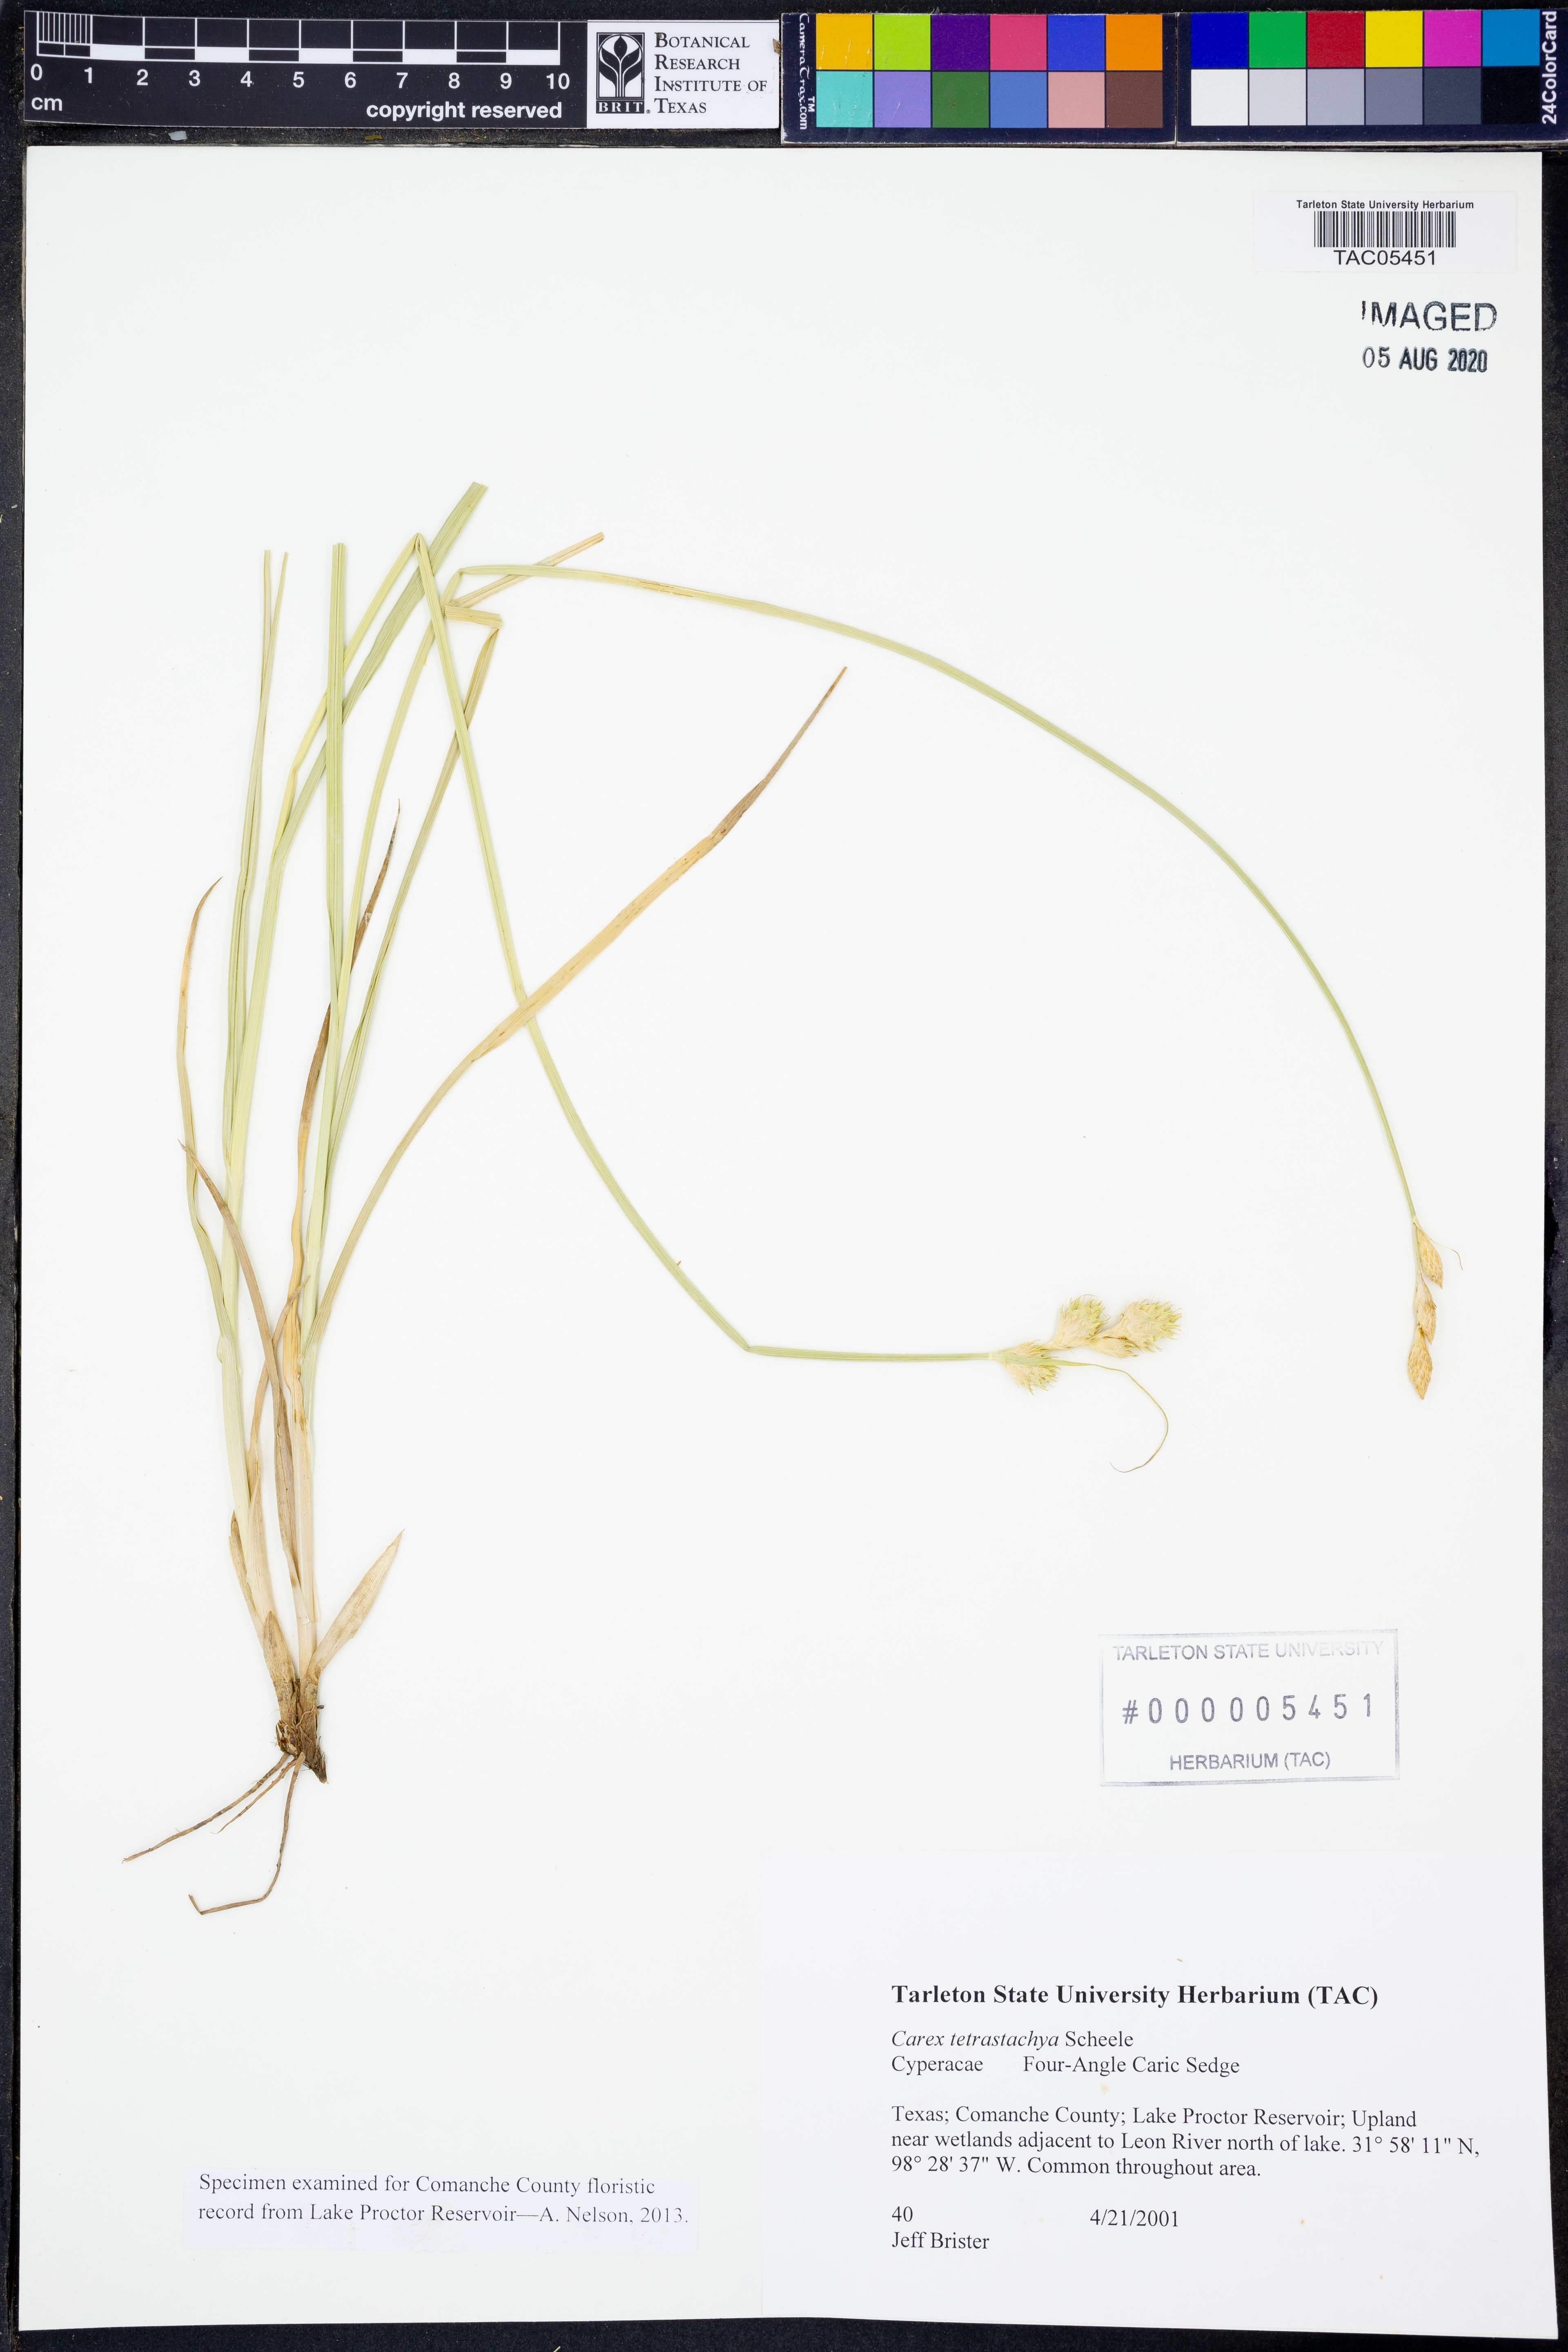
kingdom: Plantae
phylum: Tracheophyta
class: Liliopsida
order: Poales
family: Cyperaceae
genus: Carex
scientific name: Carex tetrastachya
